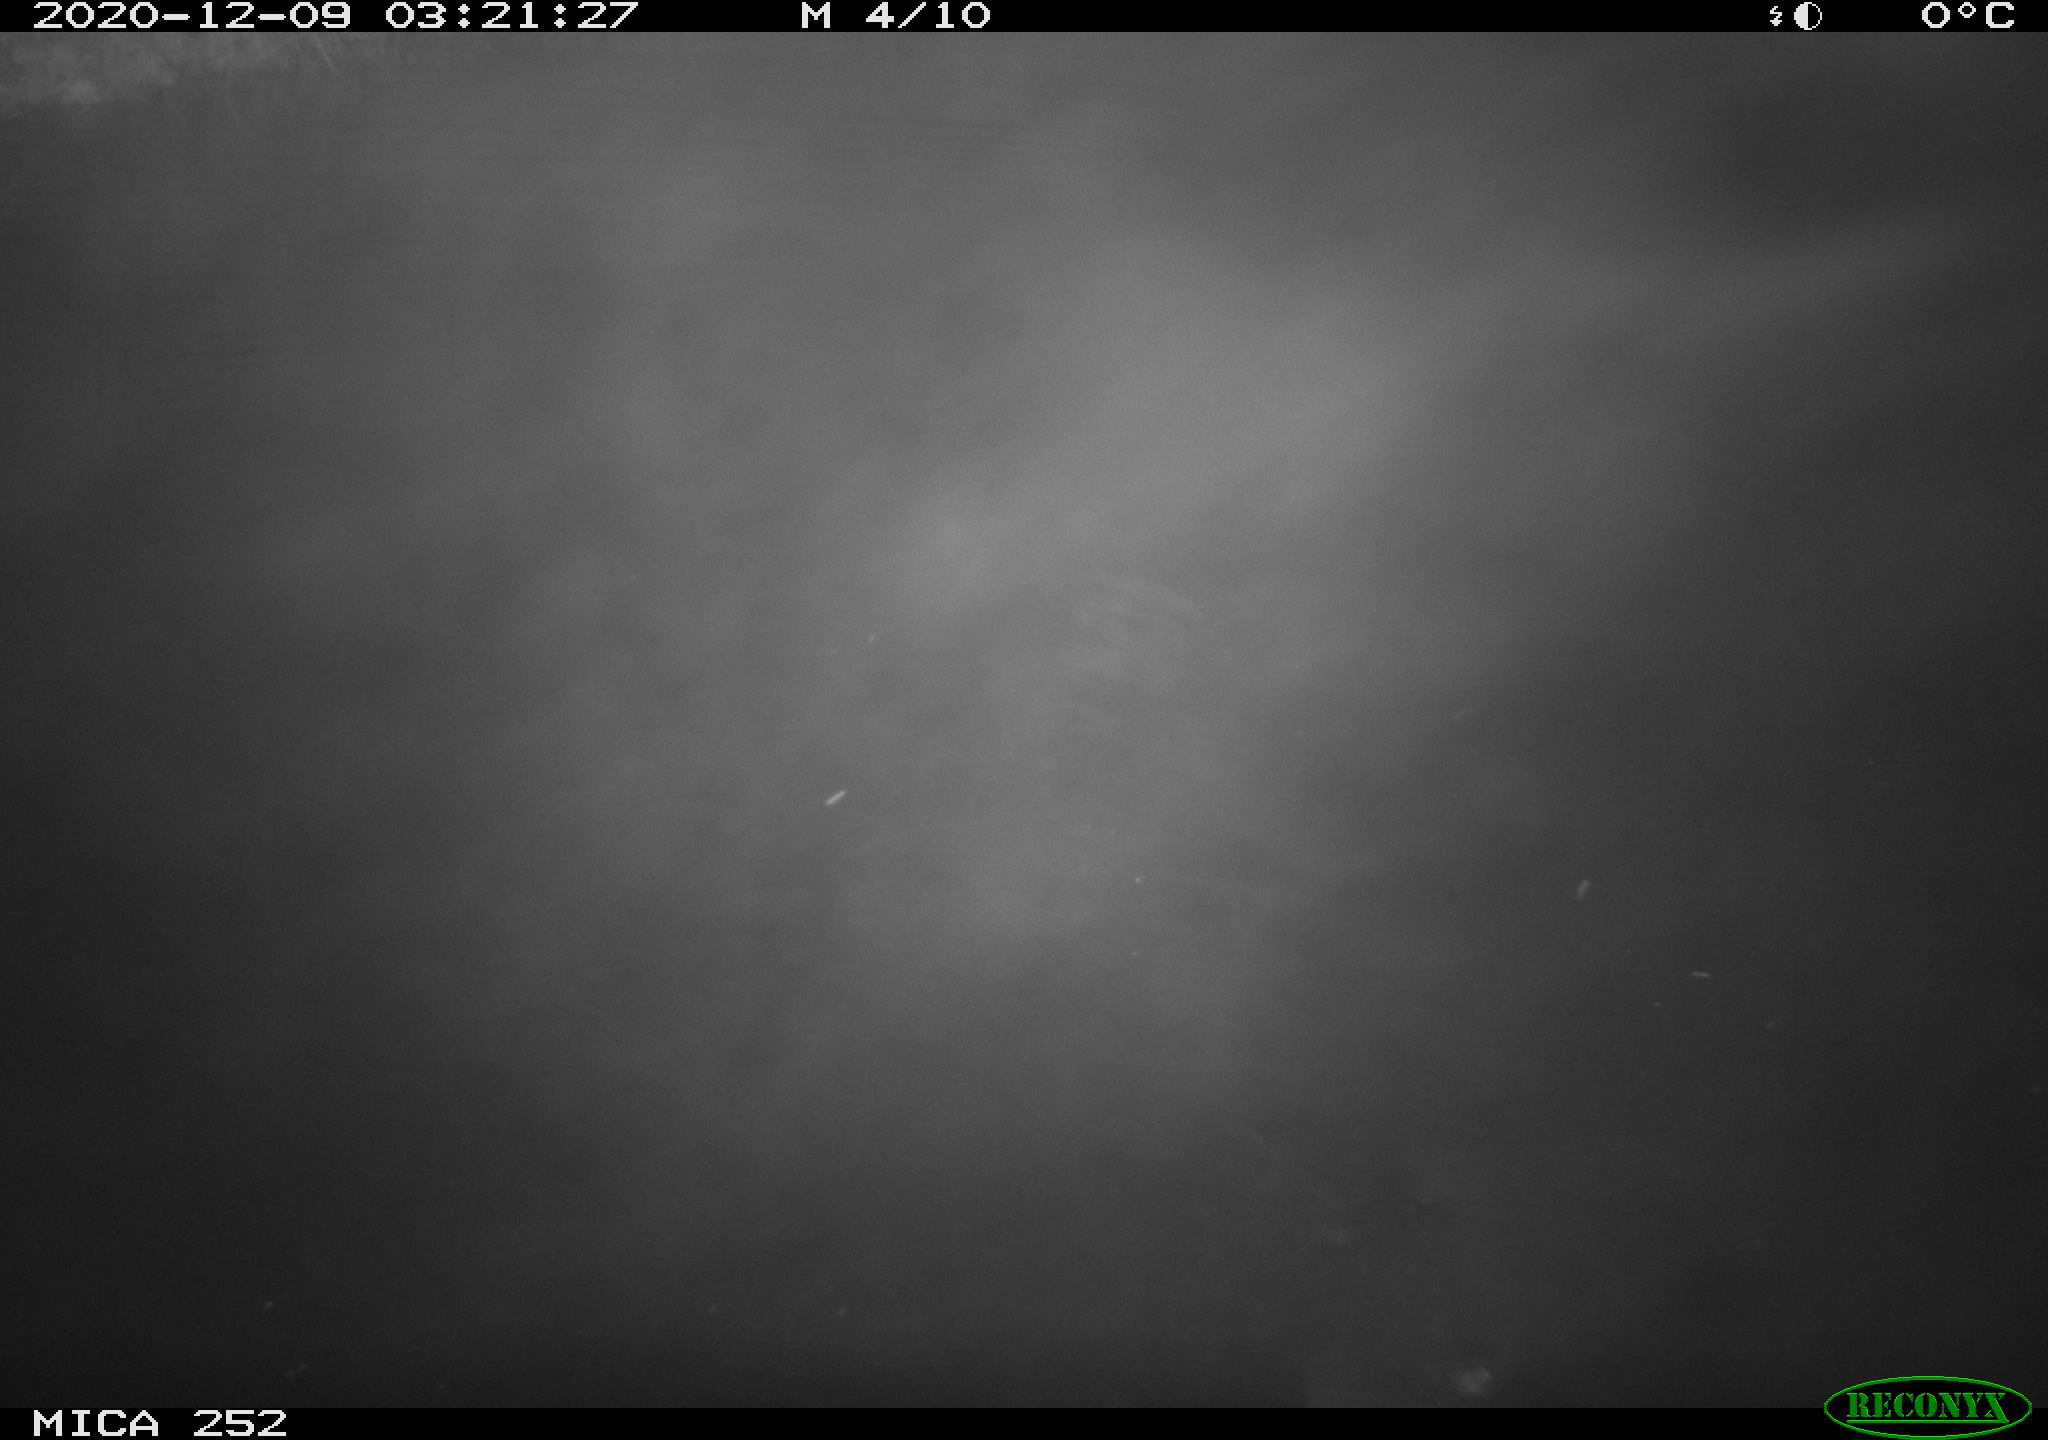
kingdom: Animalia
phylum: Chordata
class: Mammalia
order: Rodentia
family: Castoridae
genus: Castor
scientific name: Castor fiber
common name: Eurasian beaver
